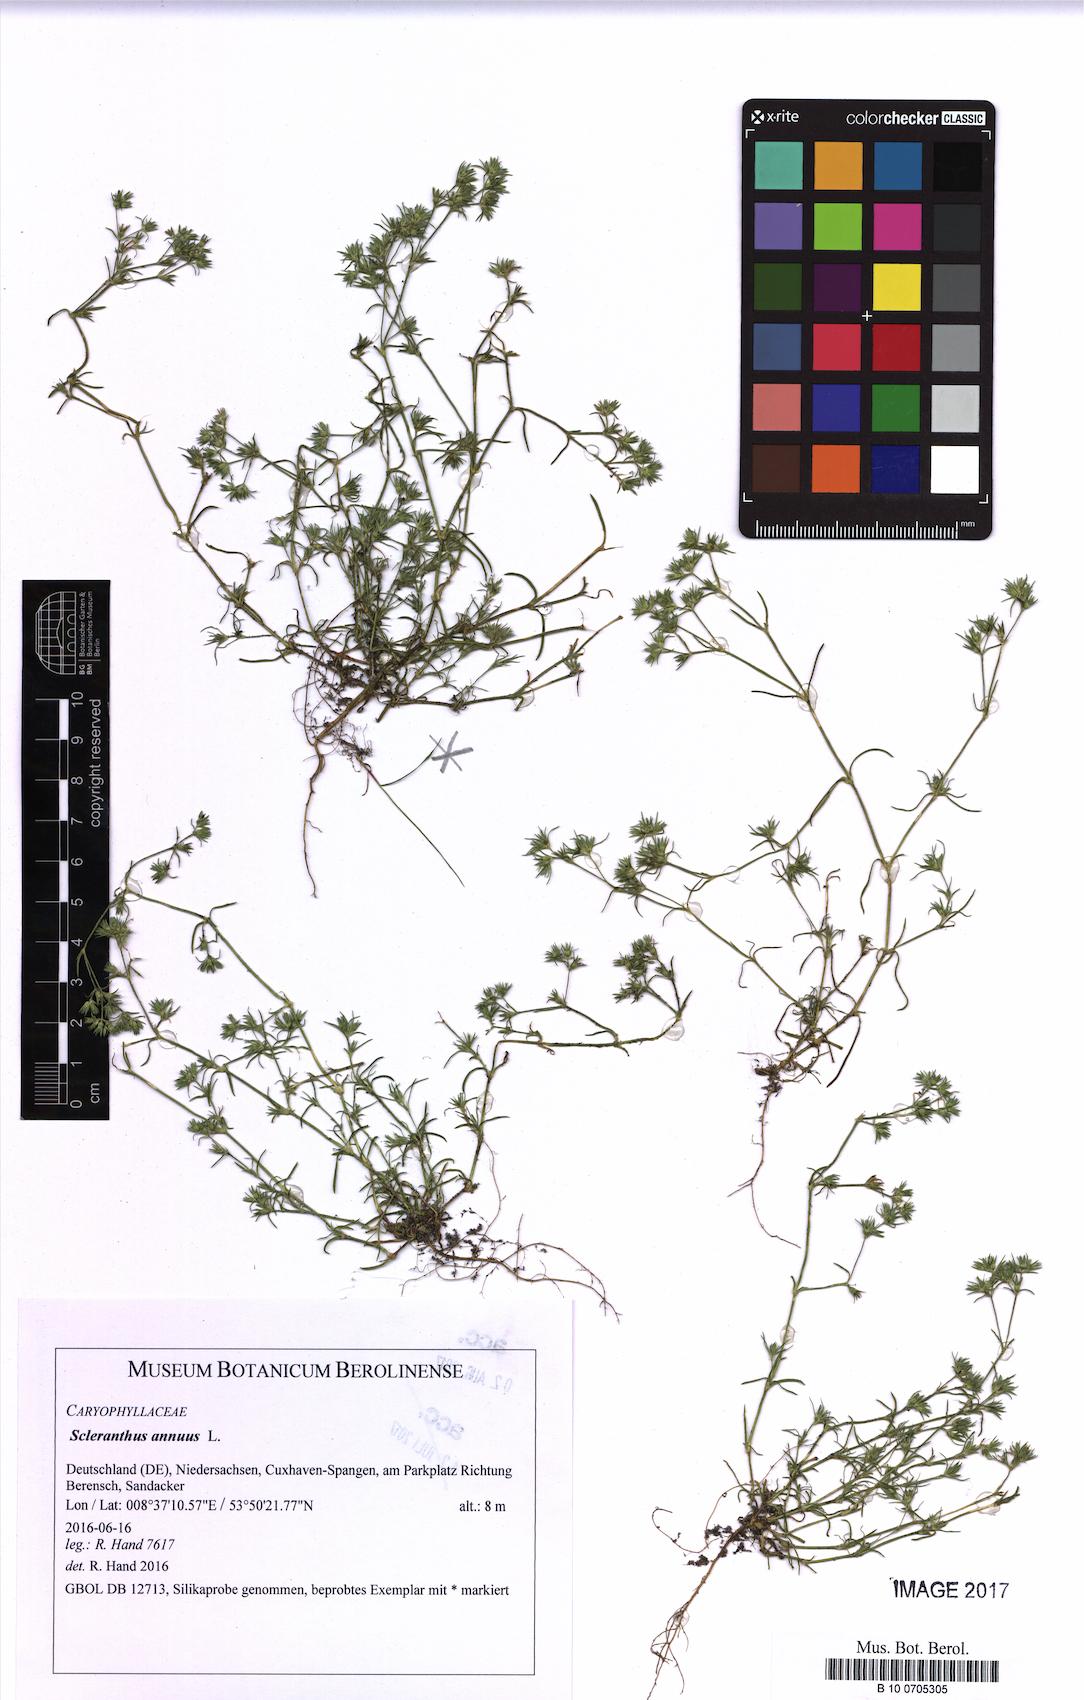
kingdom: Plantae
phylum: Tracheophyta
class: Magnoliopsida
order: Caryophyllales
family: Caryophyllaceae
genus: Scleranthus
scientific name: Scleranthus annuus
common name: Annual knawel
